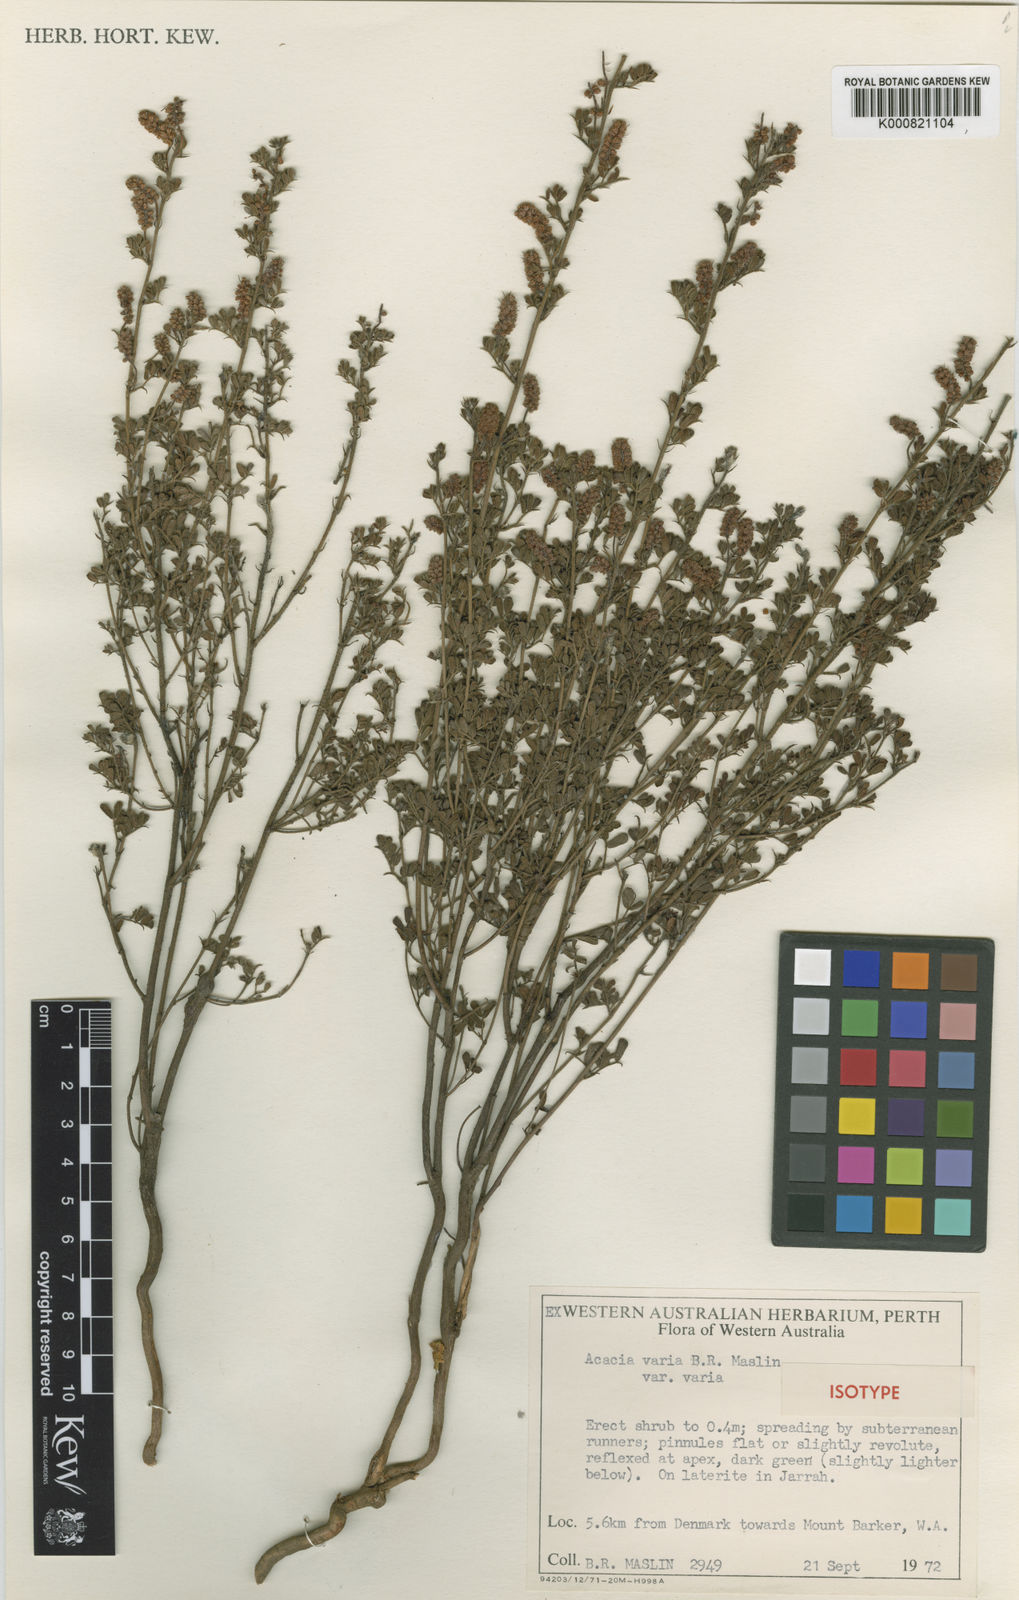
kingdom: Plantae
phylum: Tracheophyta
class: Magnoliopsida
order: Fabales
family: Fabaceae
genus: Acacia
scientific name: Acacia varia
